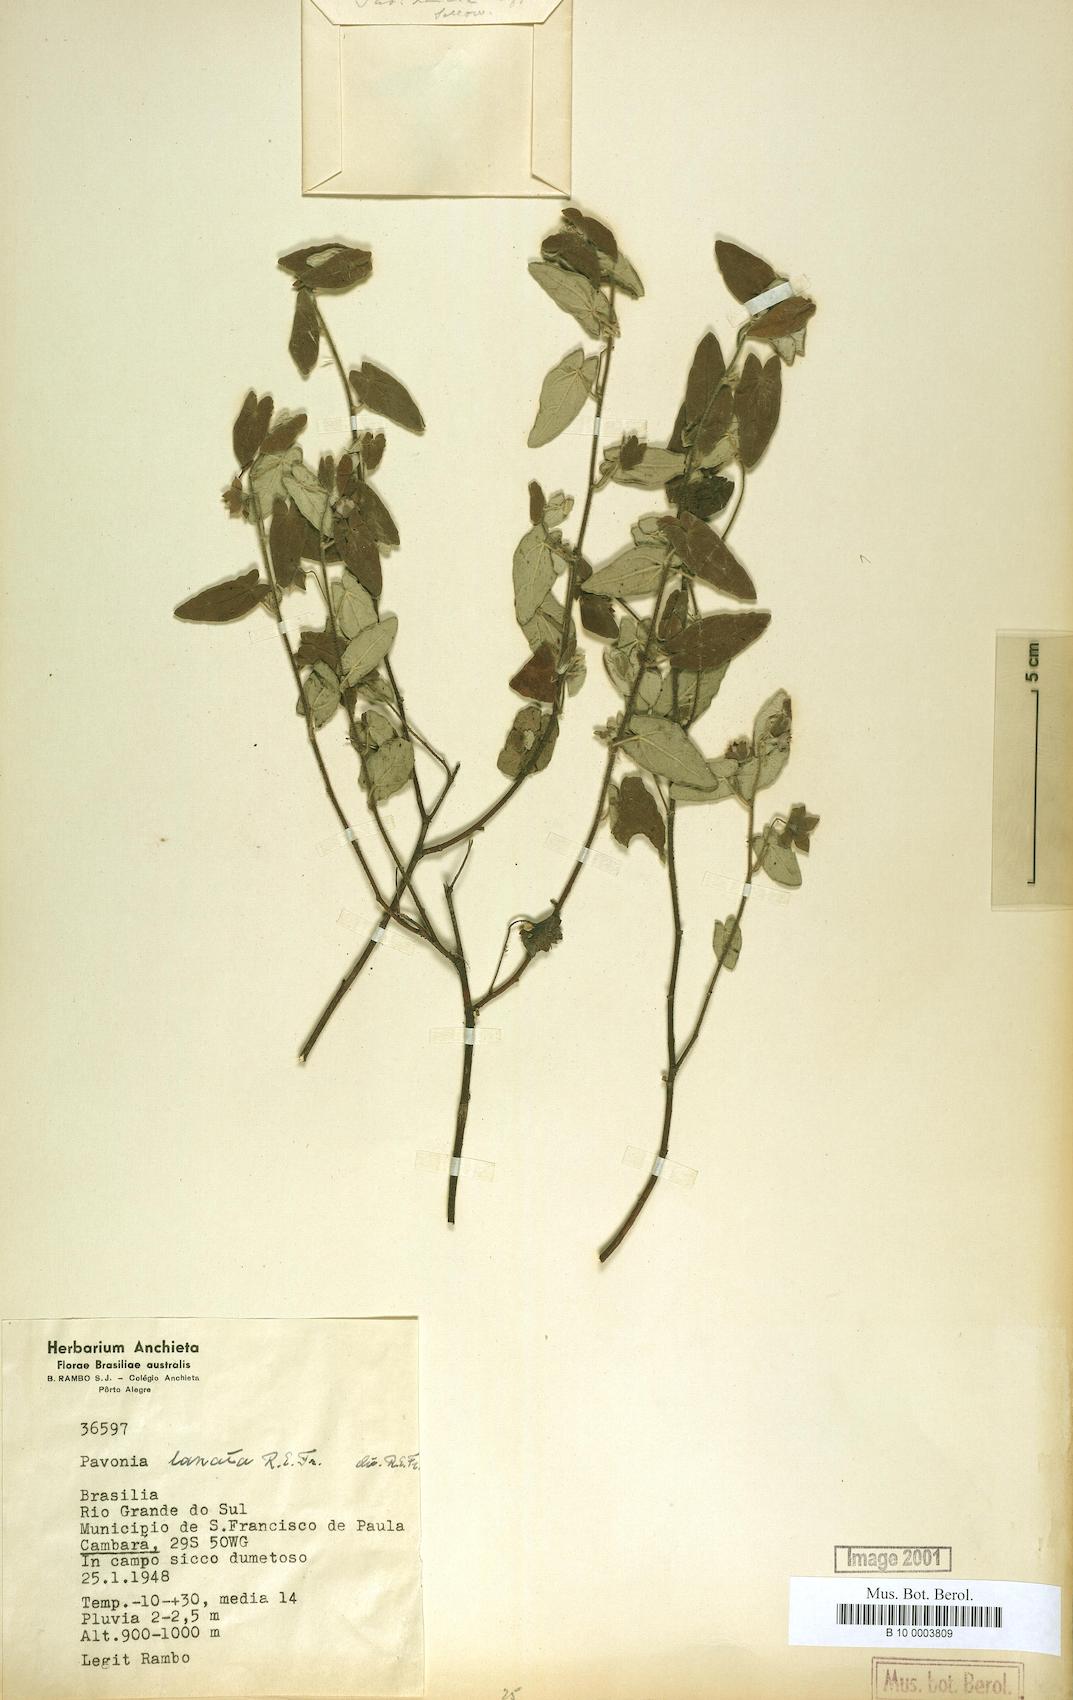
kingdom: Plantae
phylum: Tracheophyta
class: Magnoliopsida
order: Malvales
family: Malvaceae
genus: Pavonia
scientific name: Pavonia lanata
